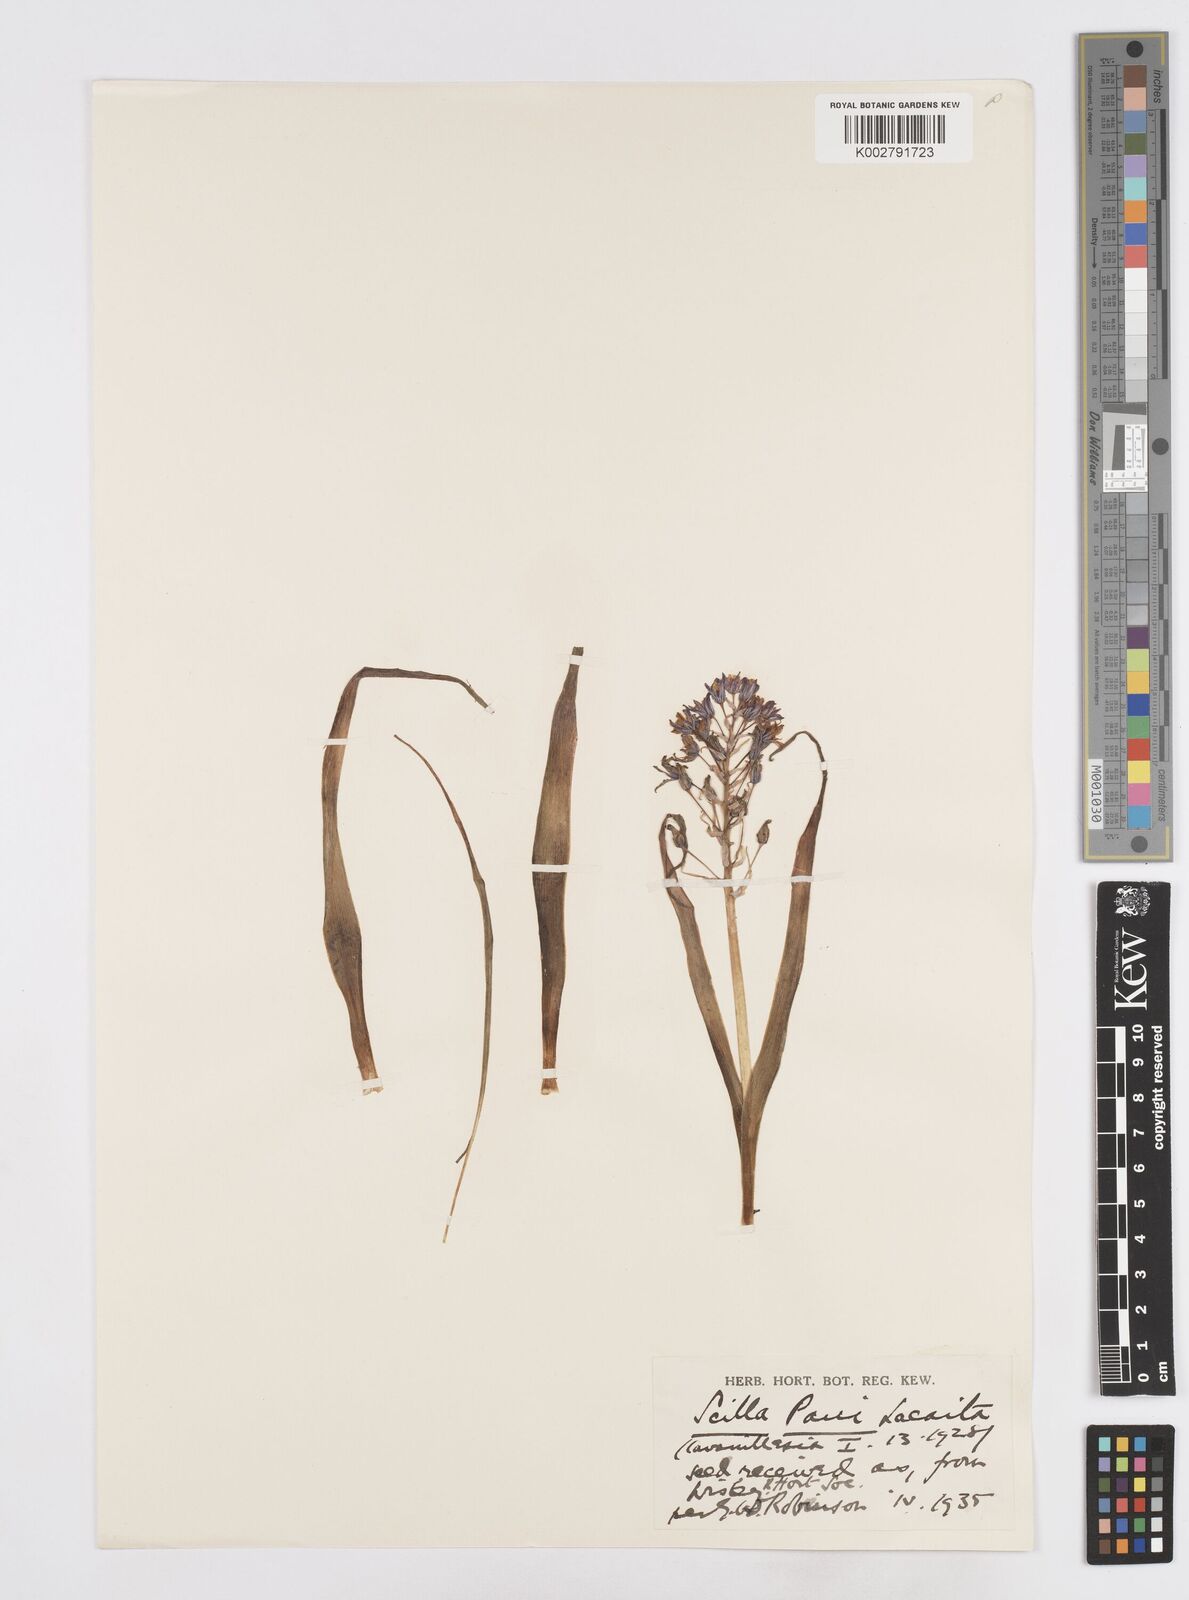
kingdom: Plantae
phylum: Tracheophyta
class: Liliopsida
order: Asparagales
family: Asparagaceae
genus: Scilla
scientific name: Scilla paui
